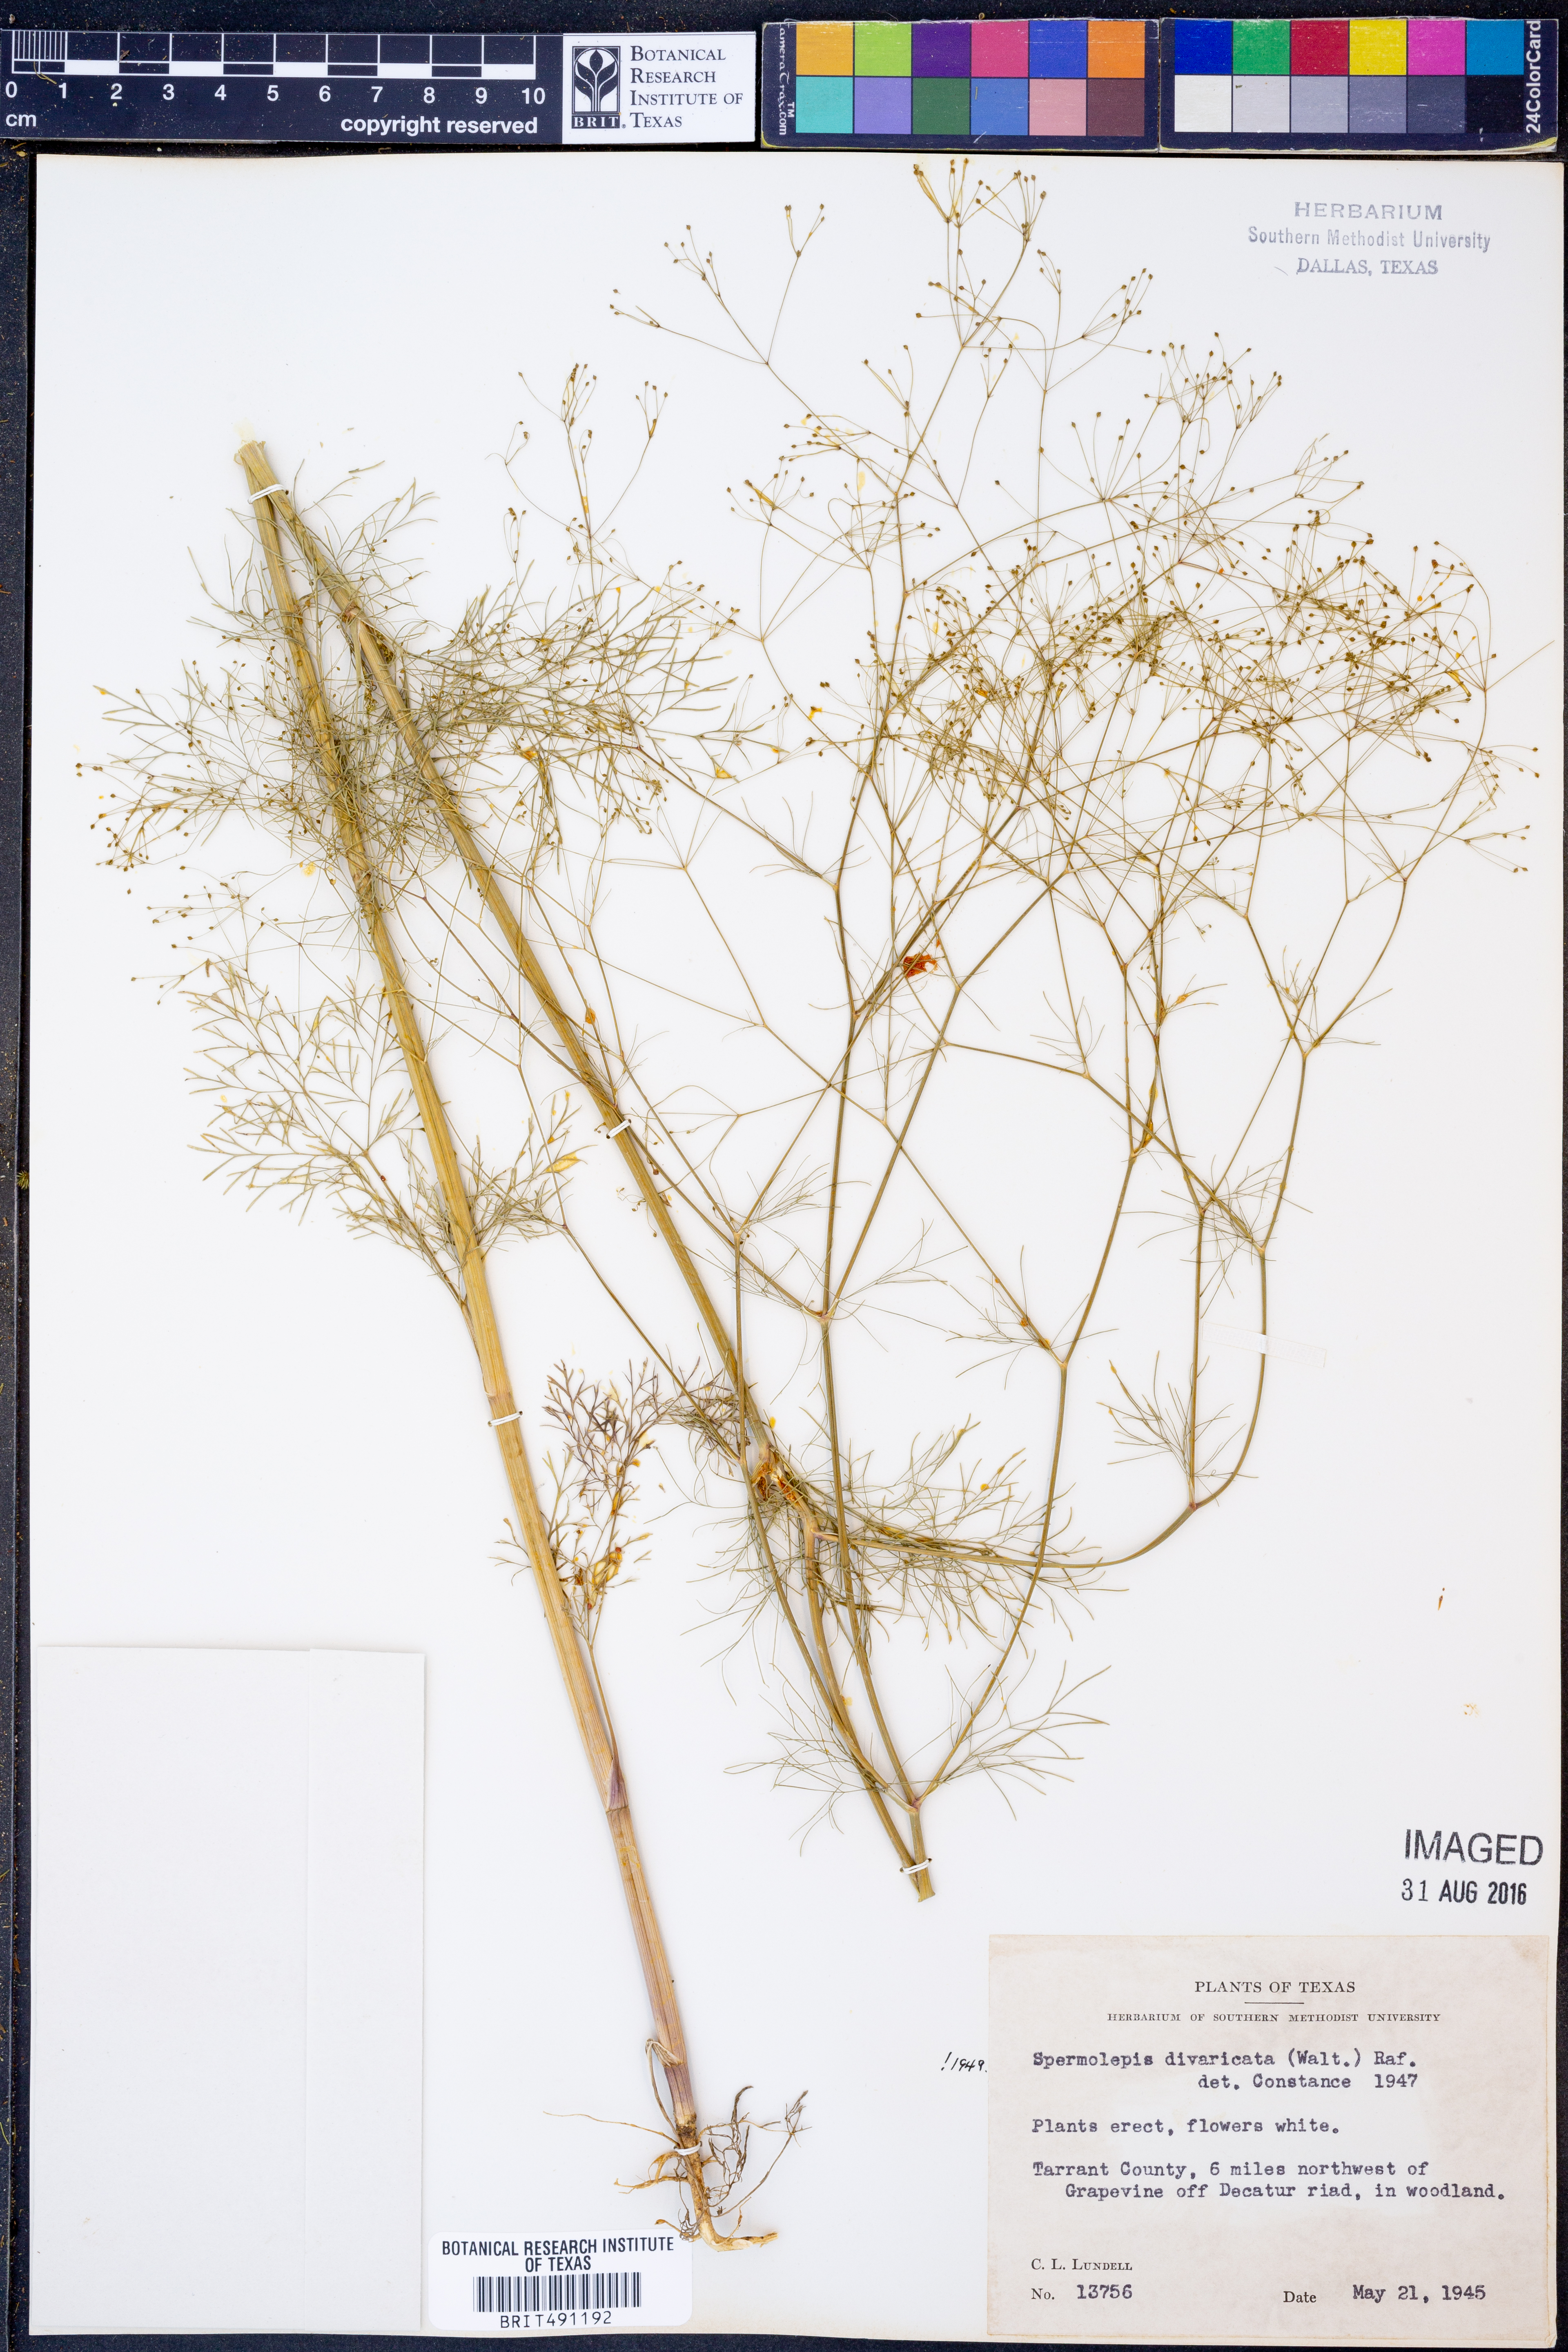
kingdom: Plantae
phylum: Tracheophyta
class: Magnoliopsida
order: Apiales
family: Apiaceae
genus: Spermolepis
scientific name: Spermolepis divaricata
